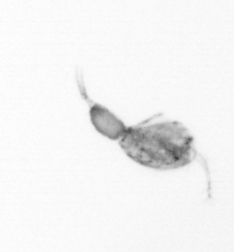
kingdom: Animalia
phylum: Arthropoda
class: Copepoda
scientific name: Copepoda
